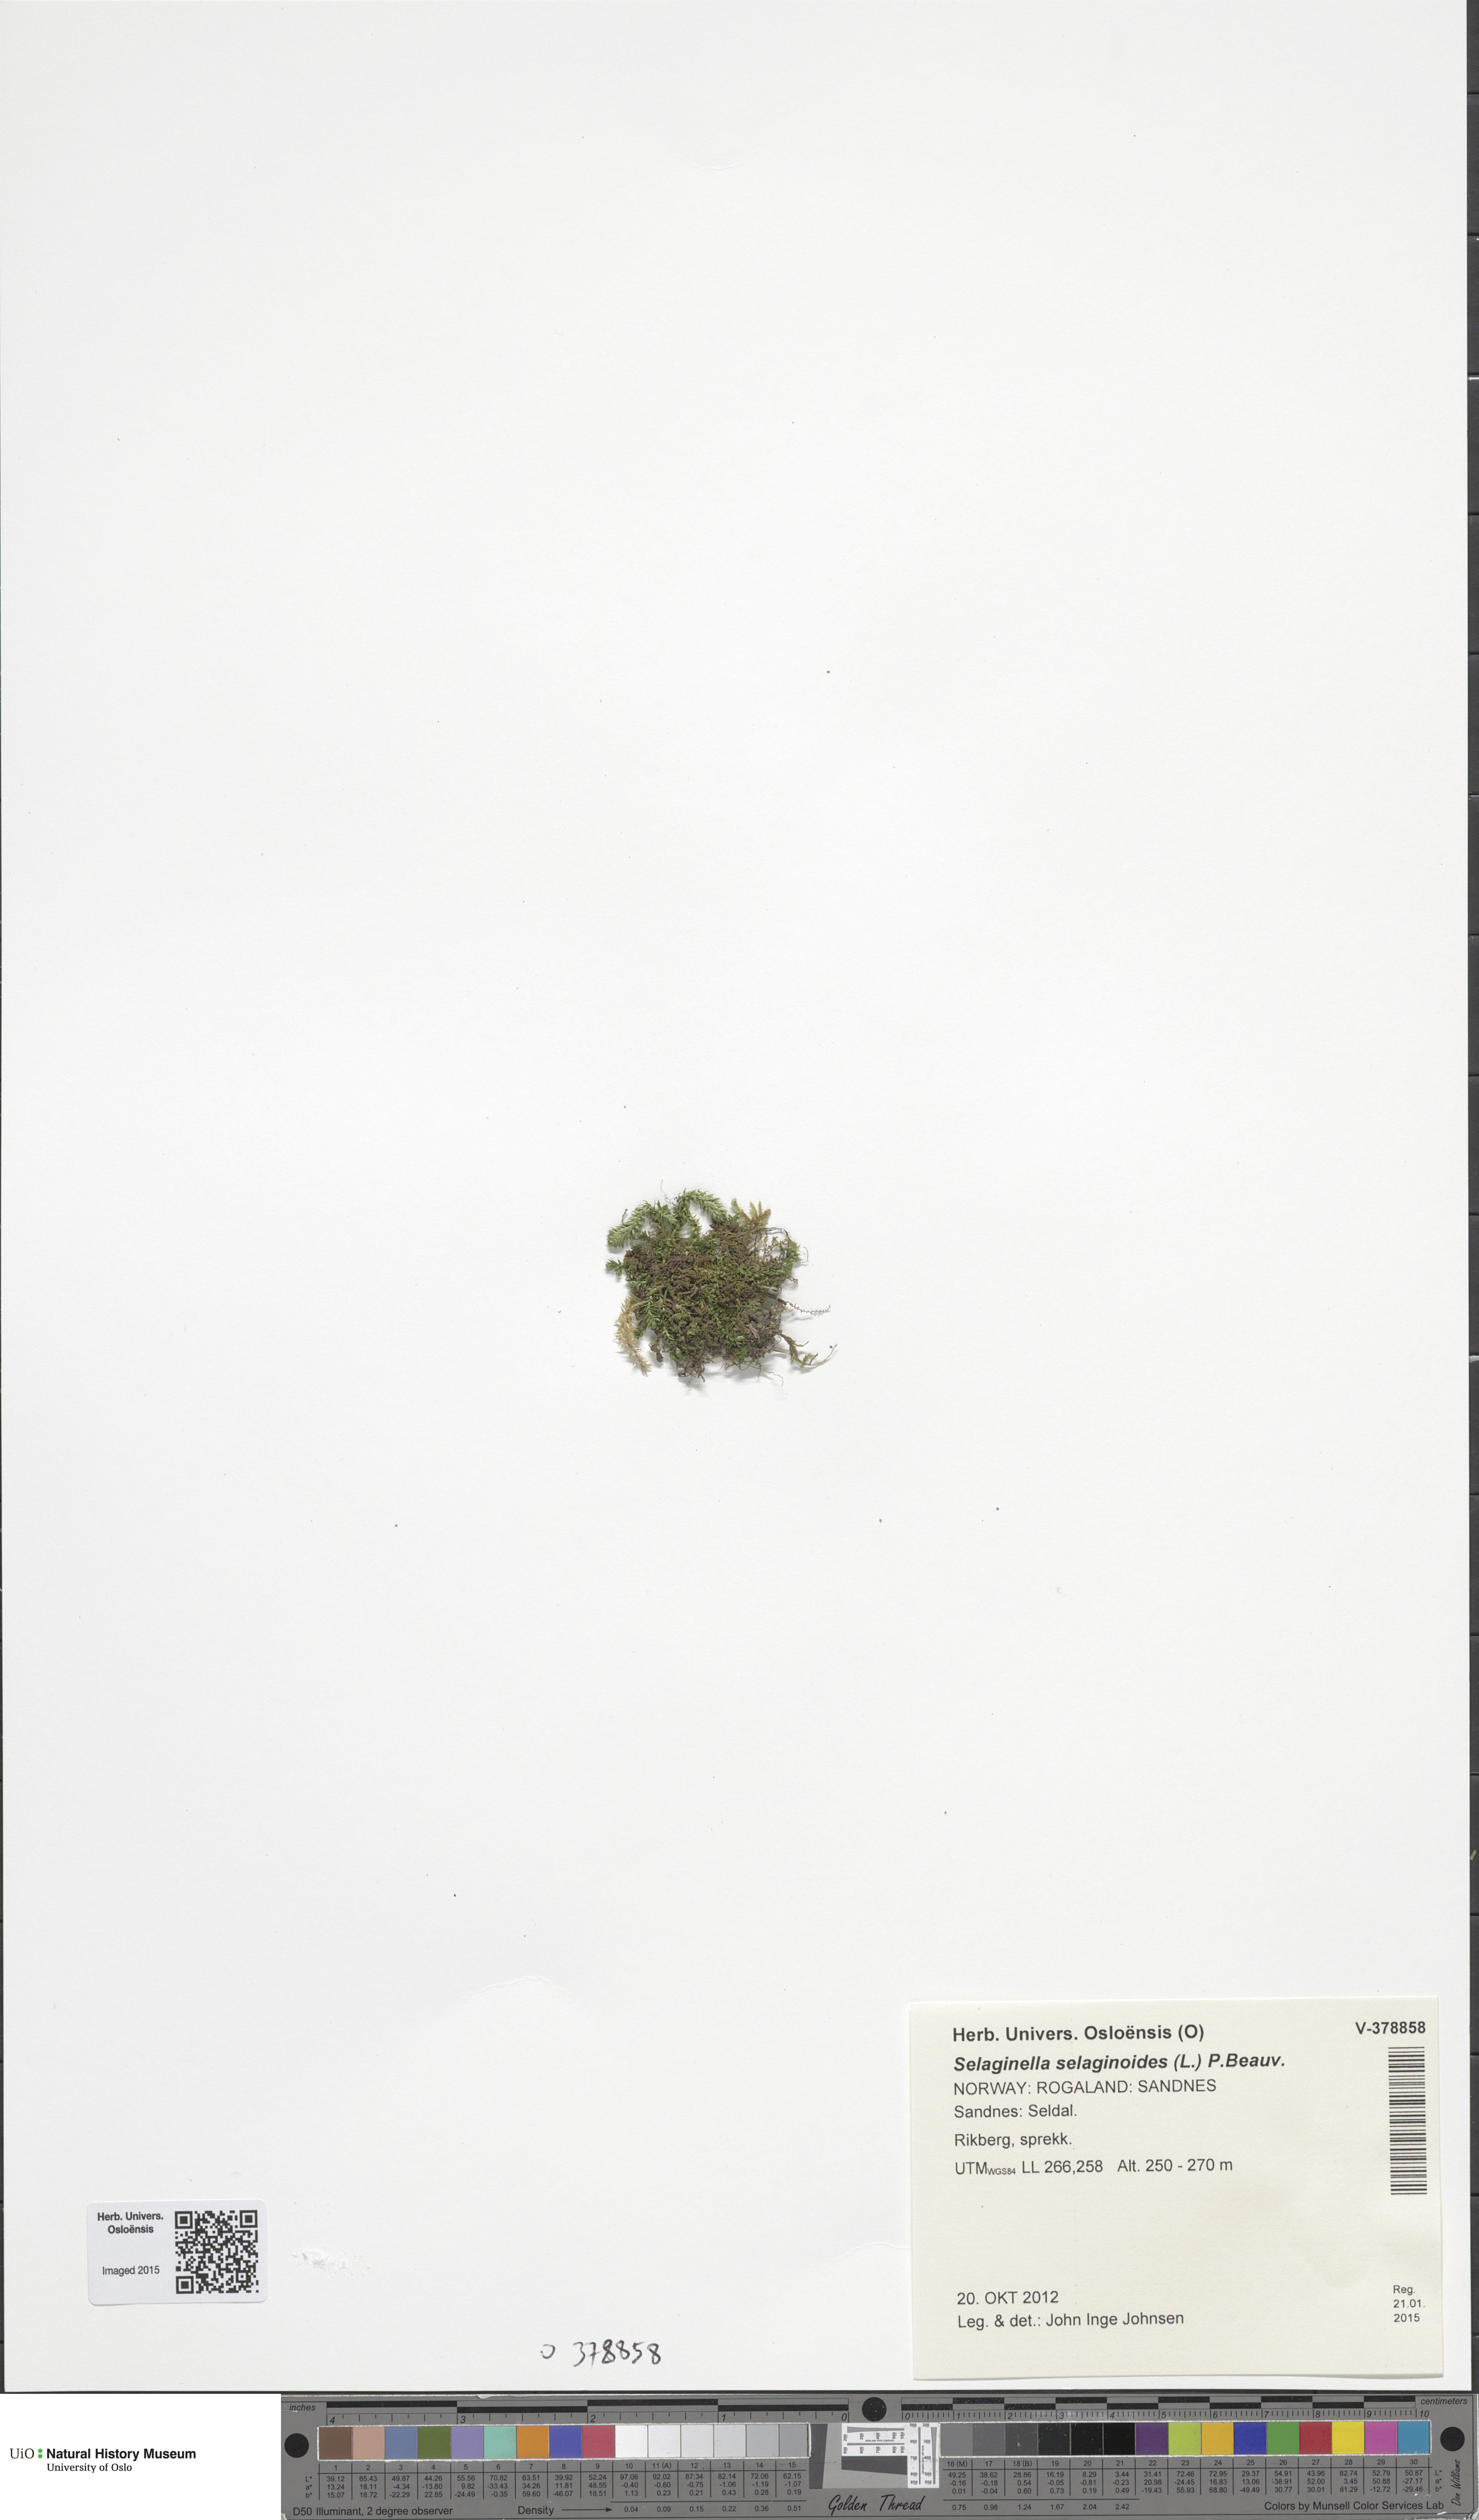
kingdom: Plantae
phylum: Tracheophyta
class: Lycopodiopsida
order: Selaginellales
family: Selaginellaceae
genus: Selaginella
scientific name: Selaginella selaginoides
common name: Prickly mountain-moss
